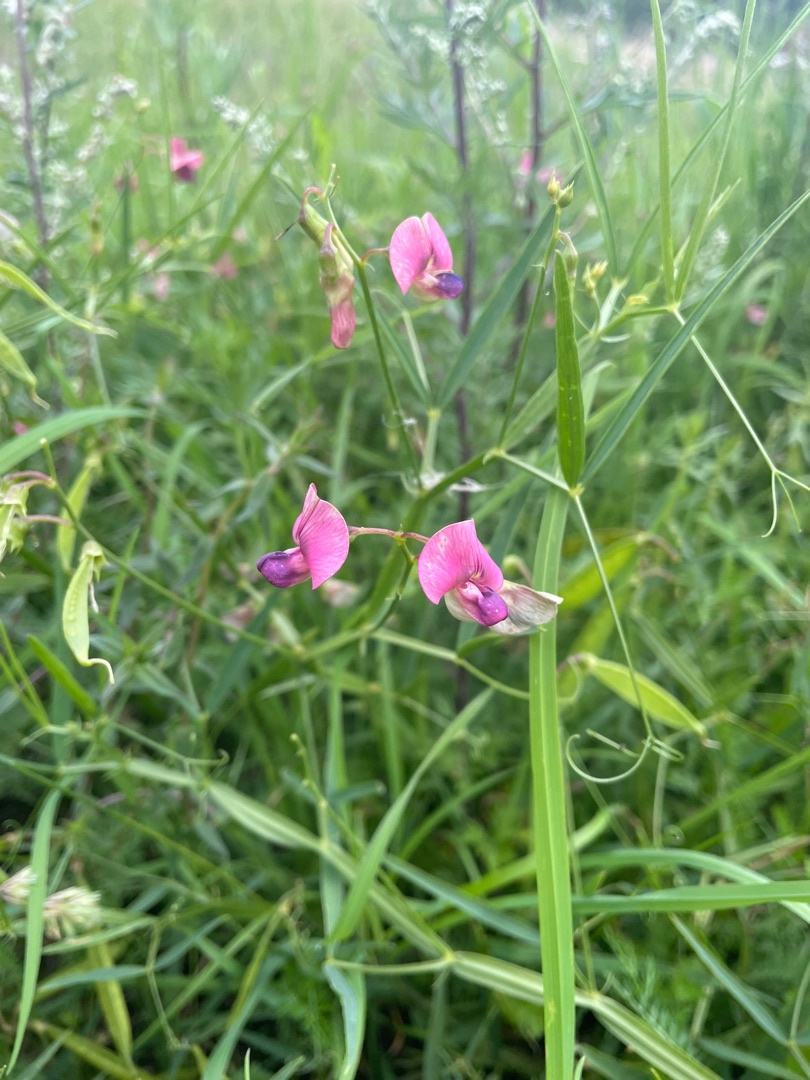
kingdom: Plantae
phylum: Tracheophyta
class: Magnoliopsida
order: Fabales
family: Fabaceae
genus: Lathyrus
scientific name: Lathyrus sylvestris
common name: Skov-fladbælg
